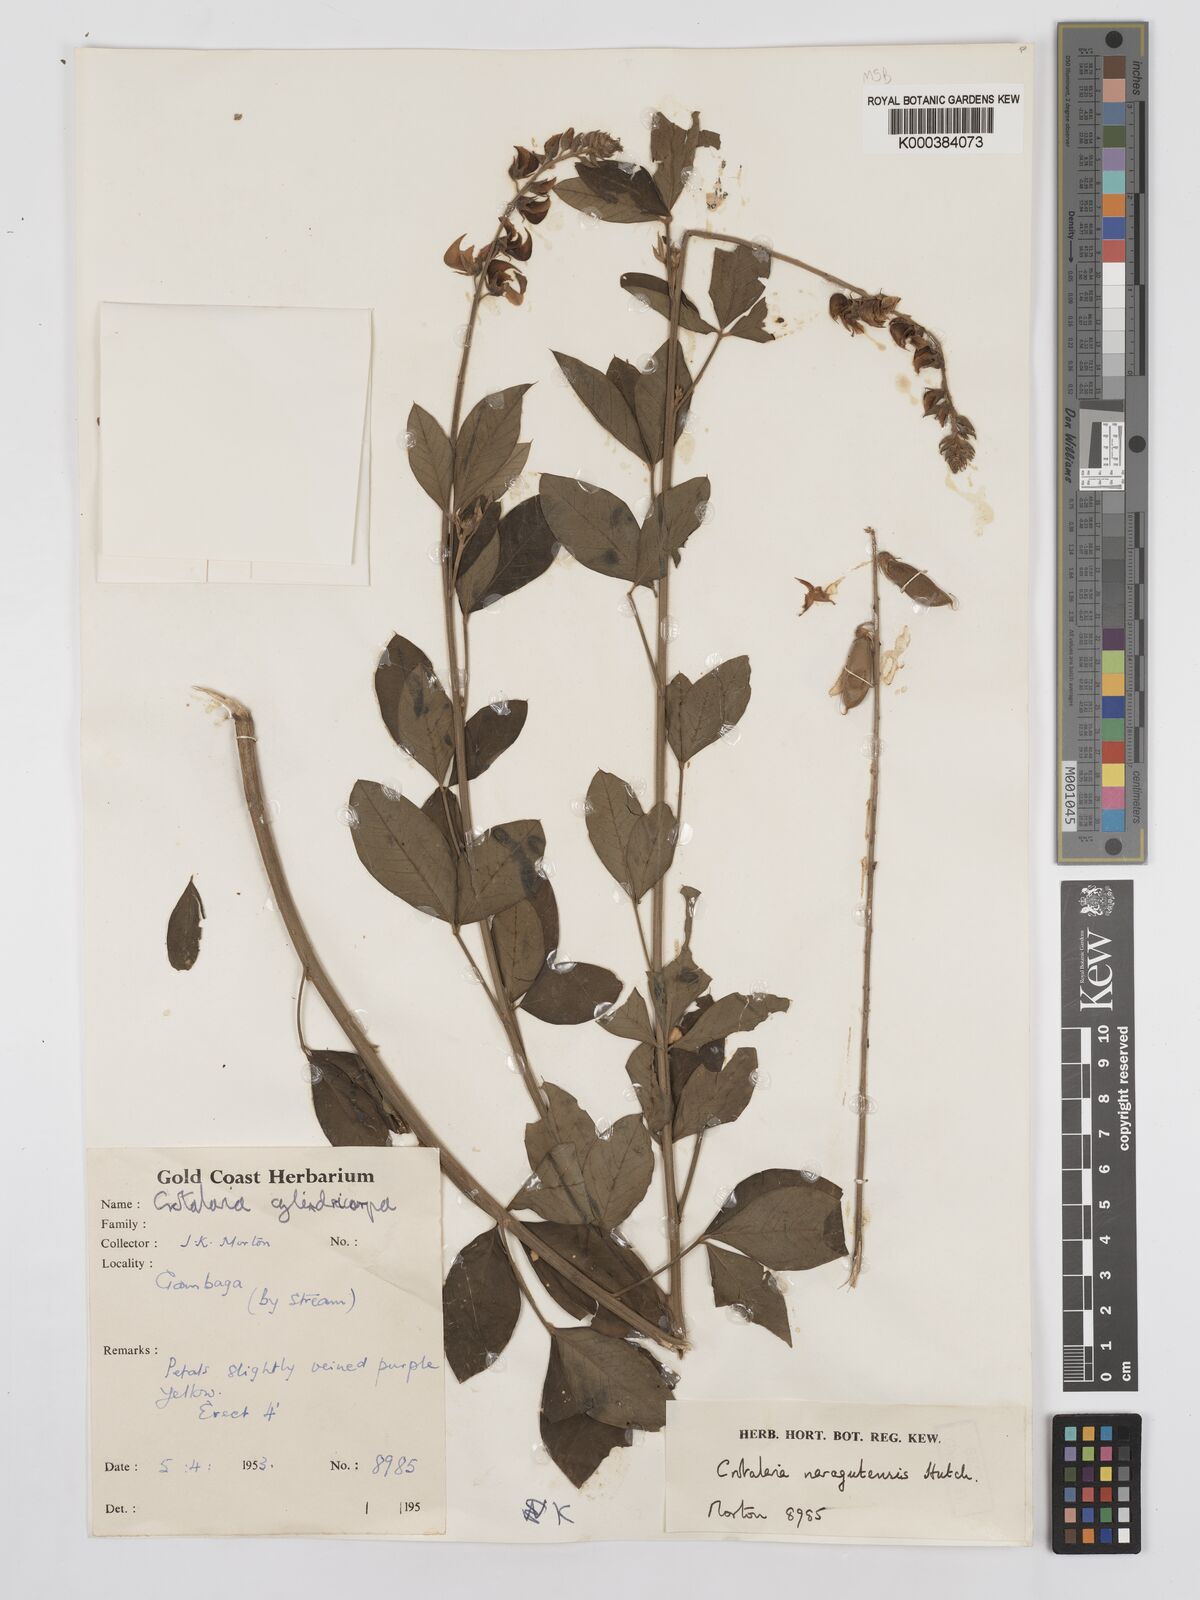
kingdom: Plantae
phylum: Tracheophyta
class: Magnoliopsida
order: Fabales
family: Fabaceae
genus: Crotalaria
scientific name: Crotalaria naragutensis
